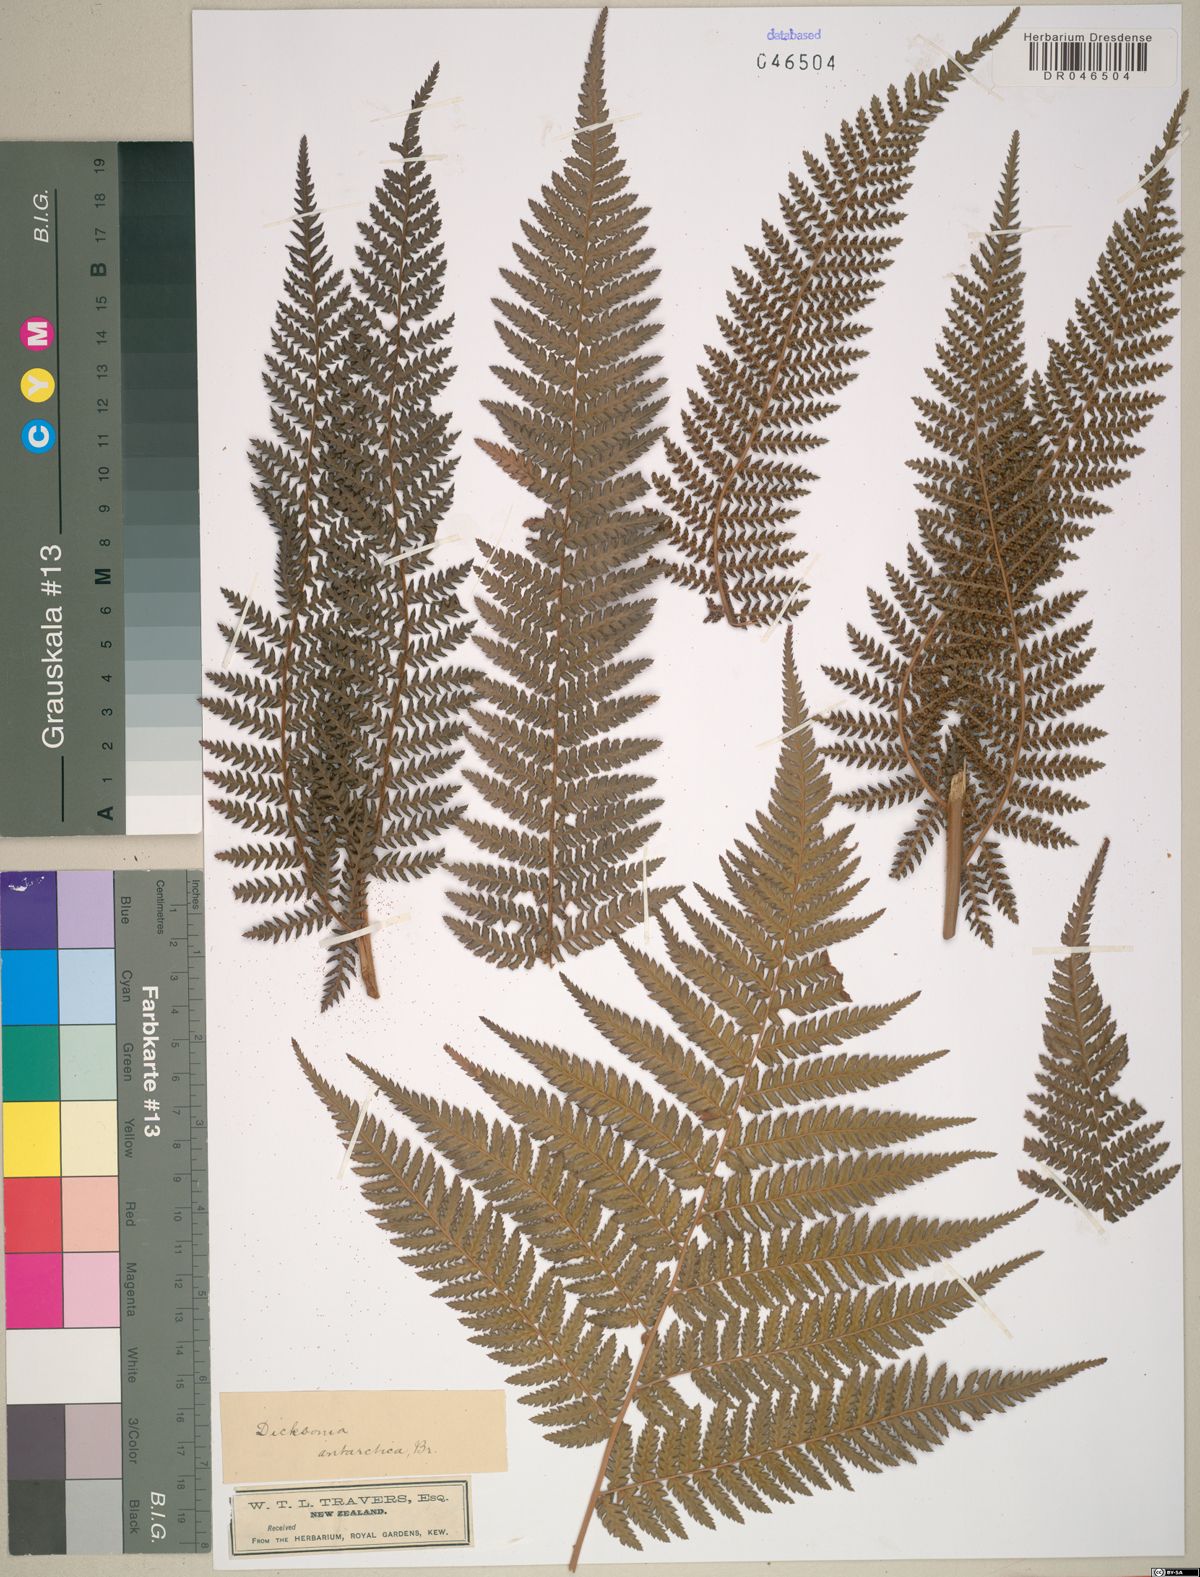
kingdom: Plantae
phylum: Tracheophyta
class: Polypodiopsida
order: Cyatheales
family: Dicksoniaceae
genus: Dicksonia
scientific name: Dicksonia antarctica
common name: Australian treefern
